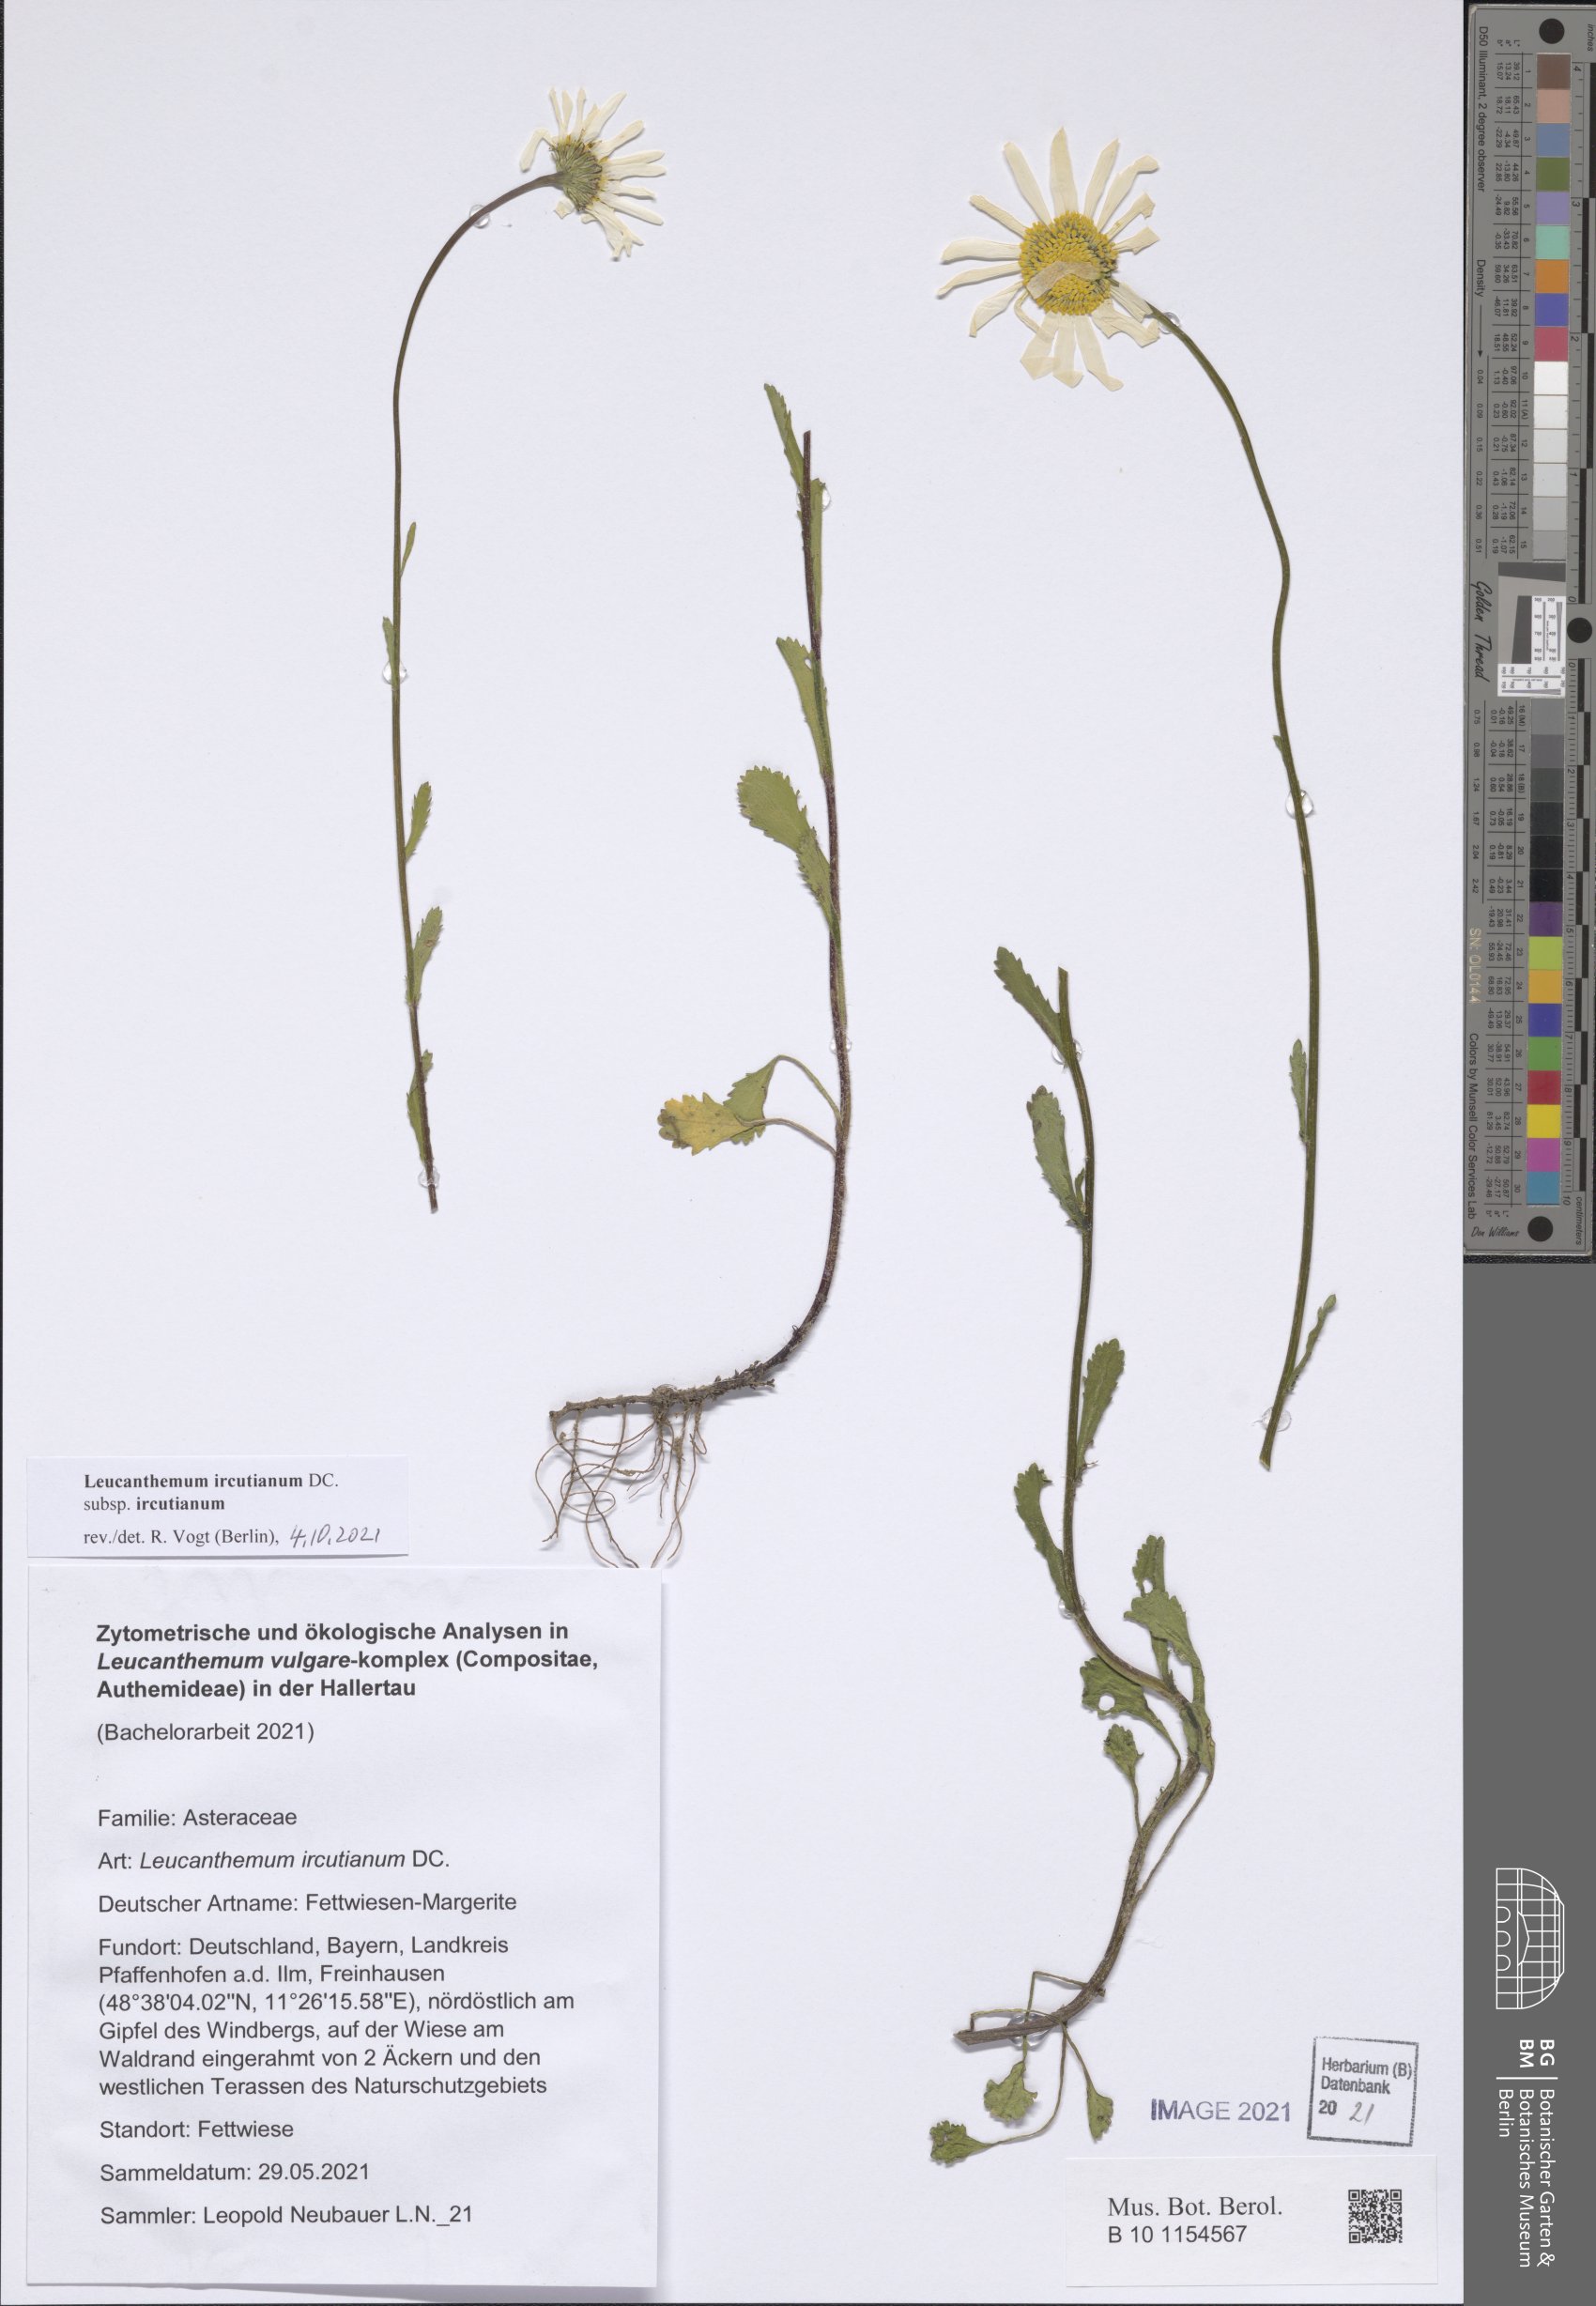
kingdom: Plantae
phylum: Tracheophyta
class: Magnoliopsida
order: Asterales
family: Asteraceae
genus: Leucanthemum
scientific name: Leucanthemum ircutianum
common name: Daisy
